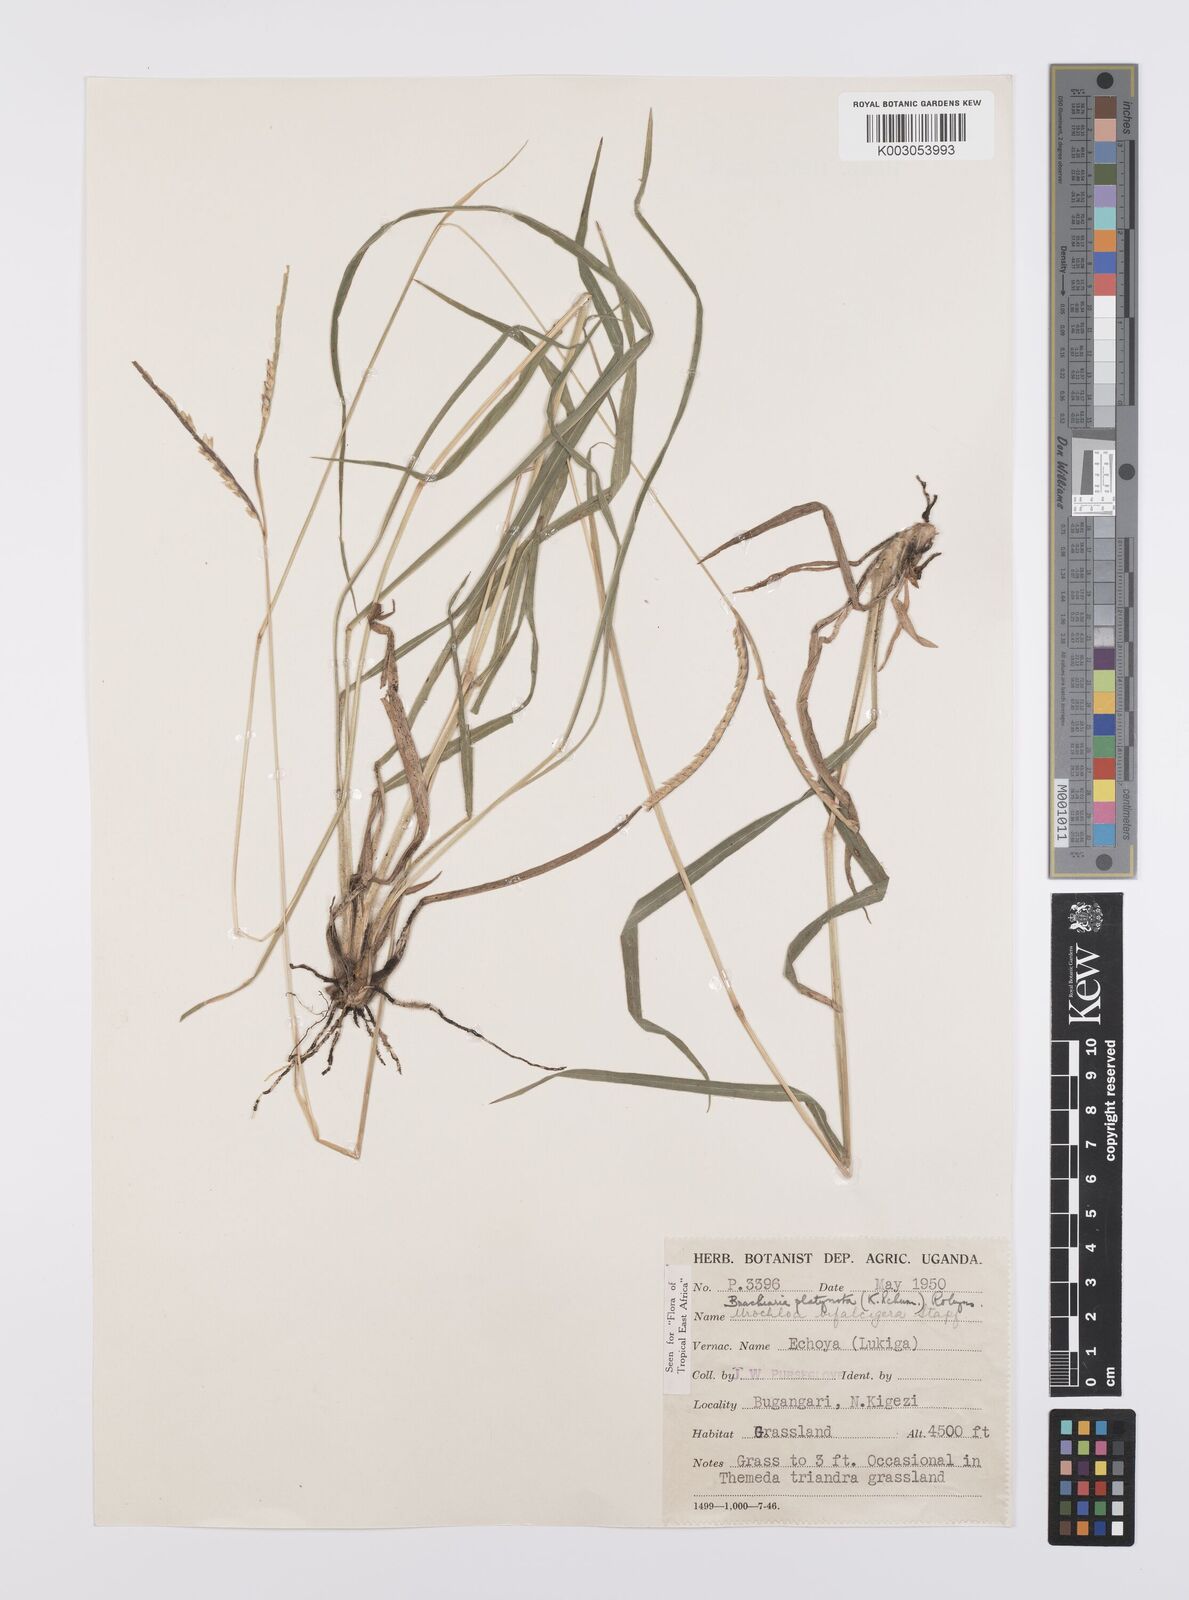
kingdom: Plantae
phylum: Tracheophyta
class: Liliopsida
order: Poales
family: Poaceae
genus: Urochloa
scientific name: Urochloa platynota
